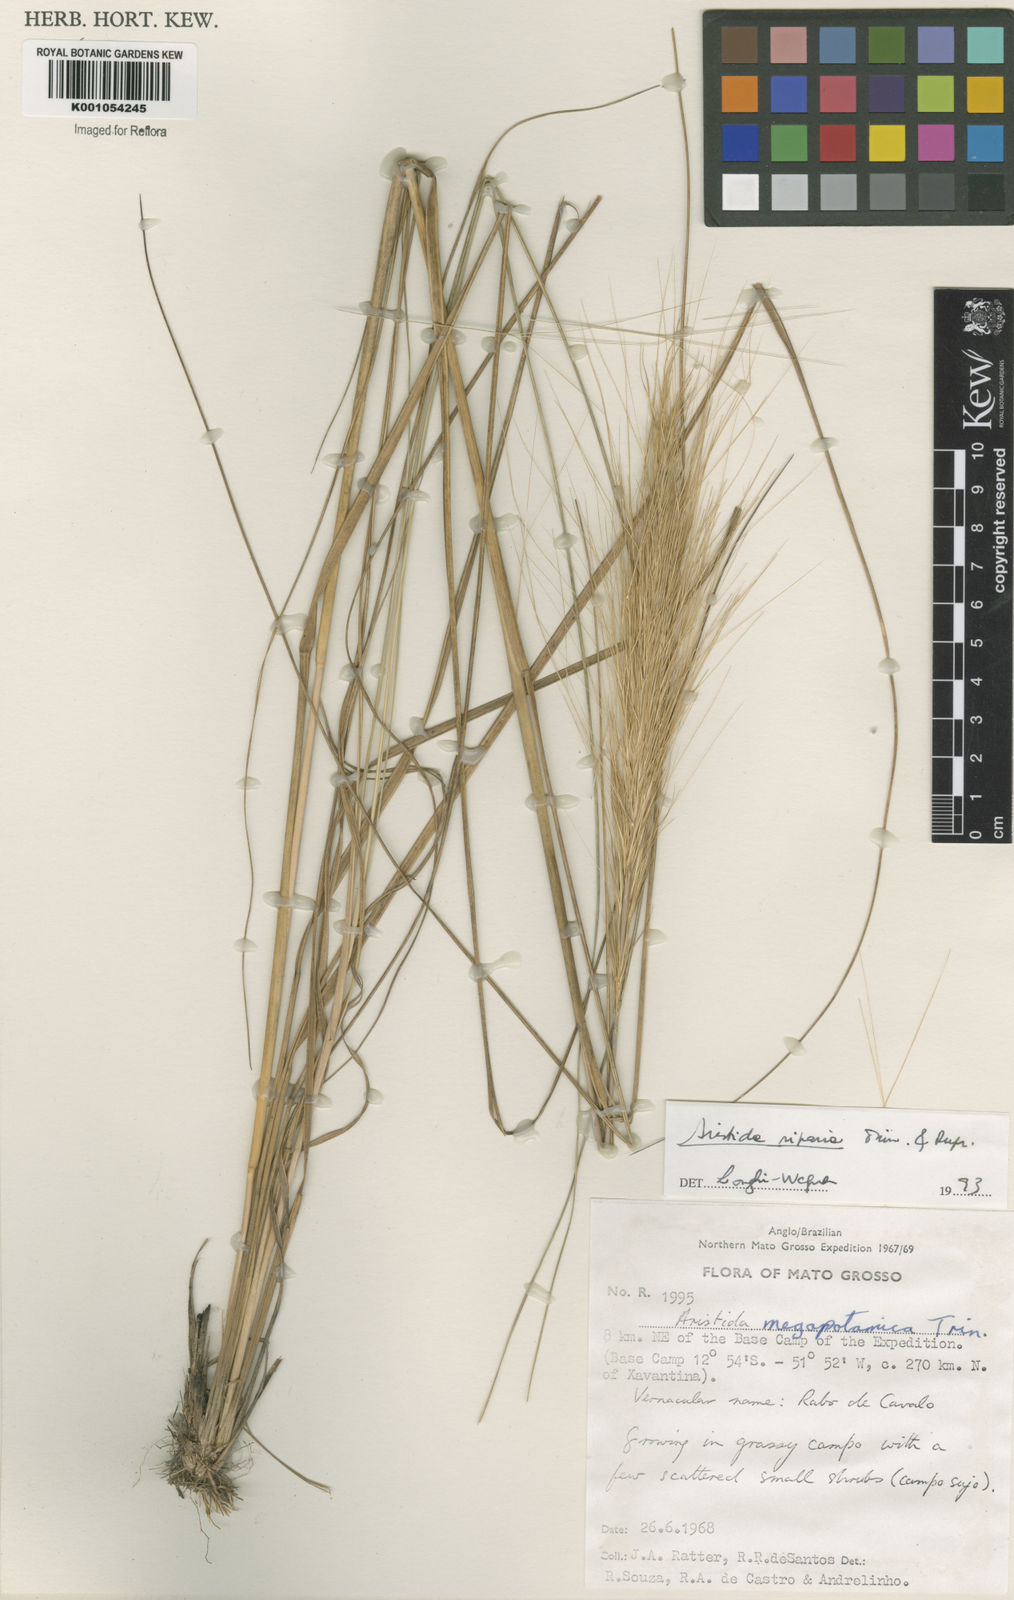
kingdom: Plantae
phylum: Tracheophyta
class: Liliopsida
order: Poales
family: Poaceae
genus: Aristida
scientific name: Aristida riparia
